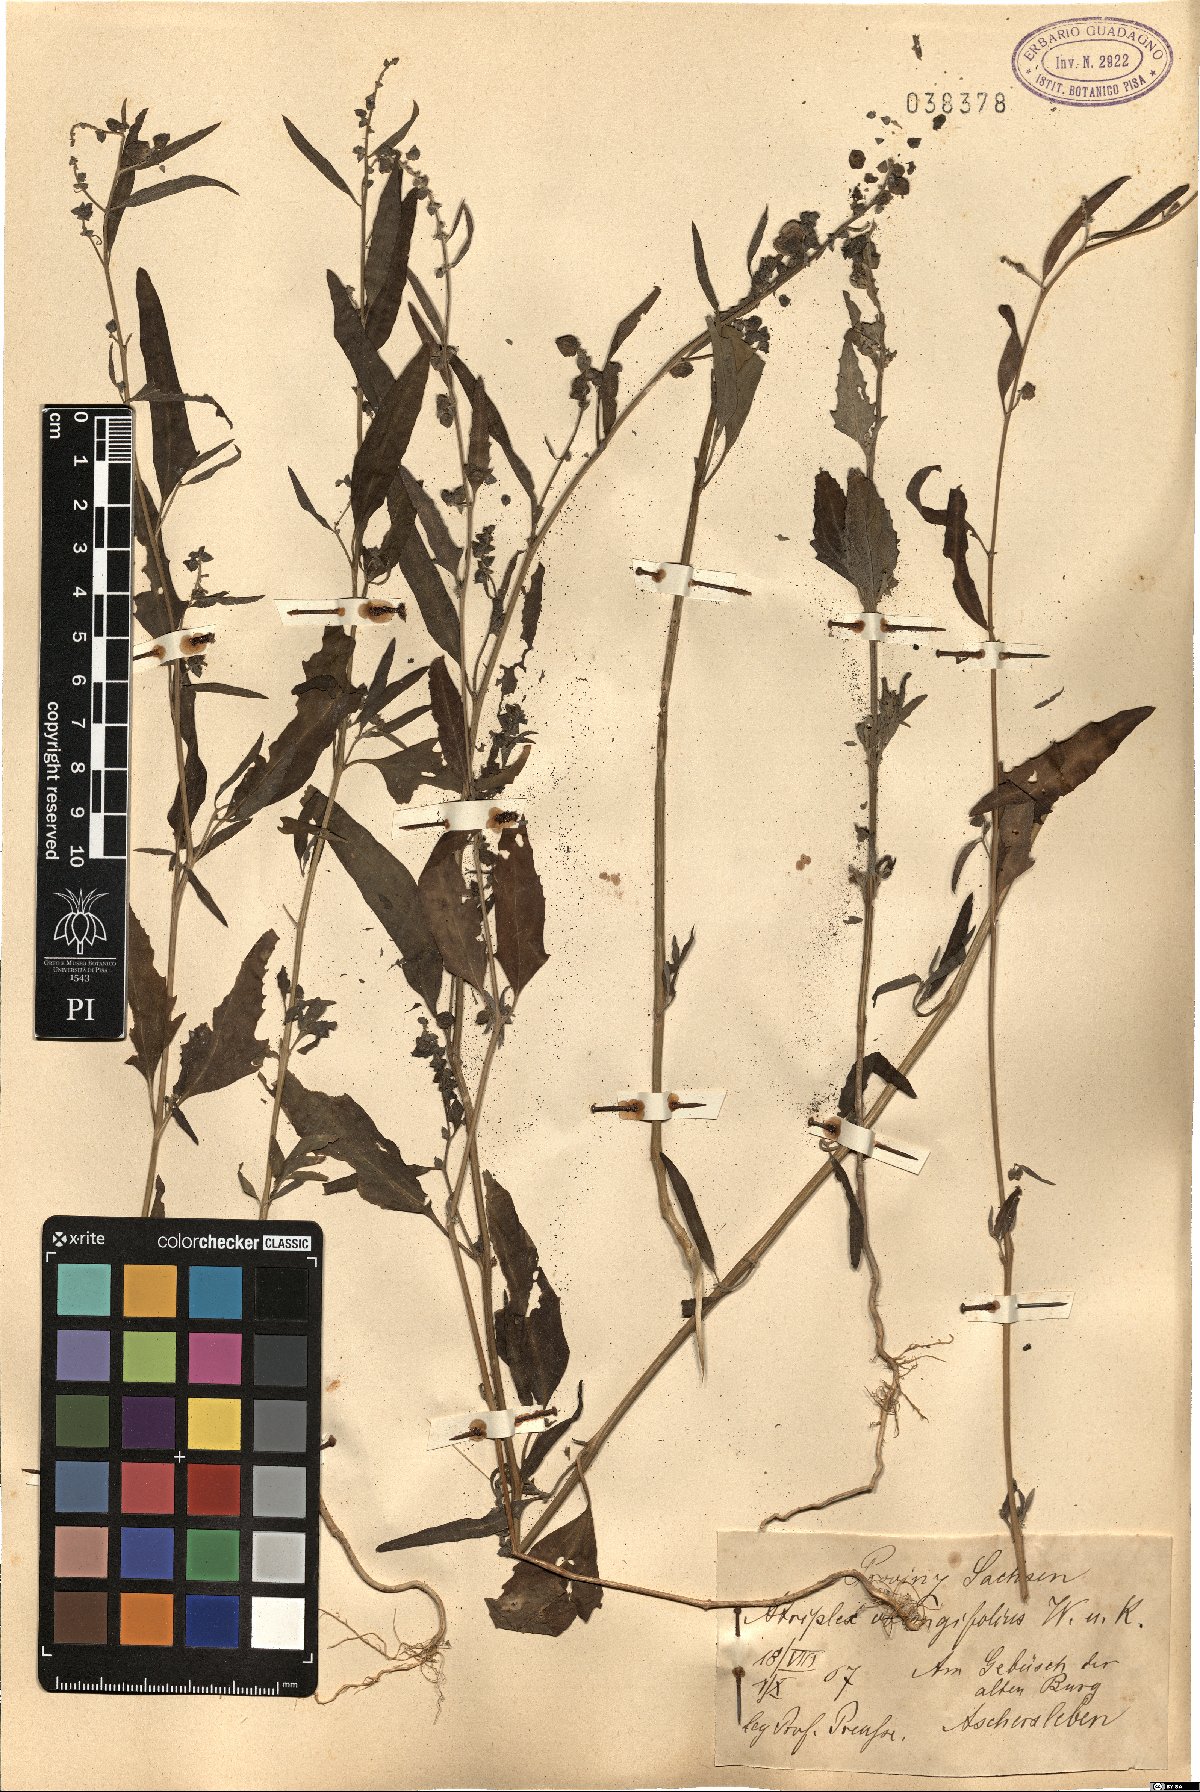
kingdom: Plantae
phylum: Tracheophyta
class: Magnoliopsida
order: Caryophyllales
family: Amaranthaceae
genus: Atriplex
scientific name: Atriplex oblongifolia
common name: Oblongleaf orache
